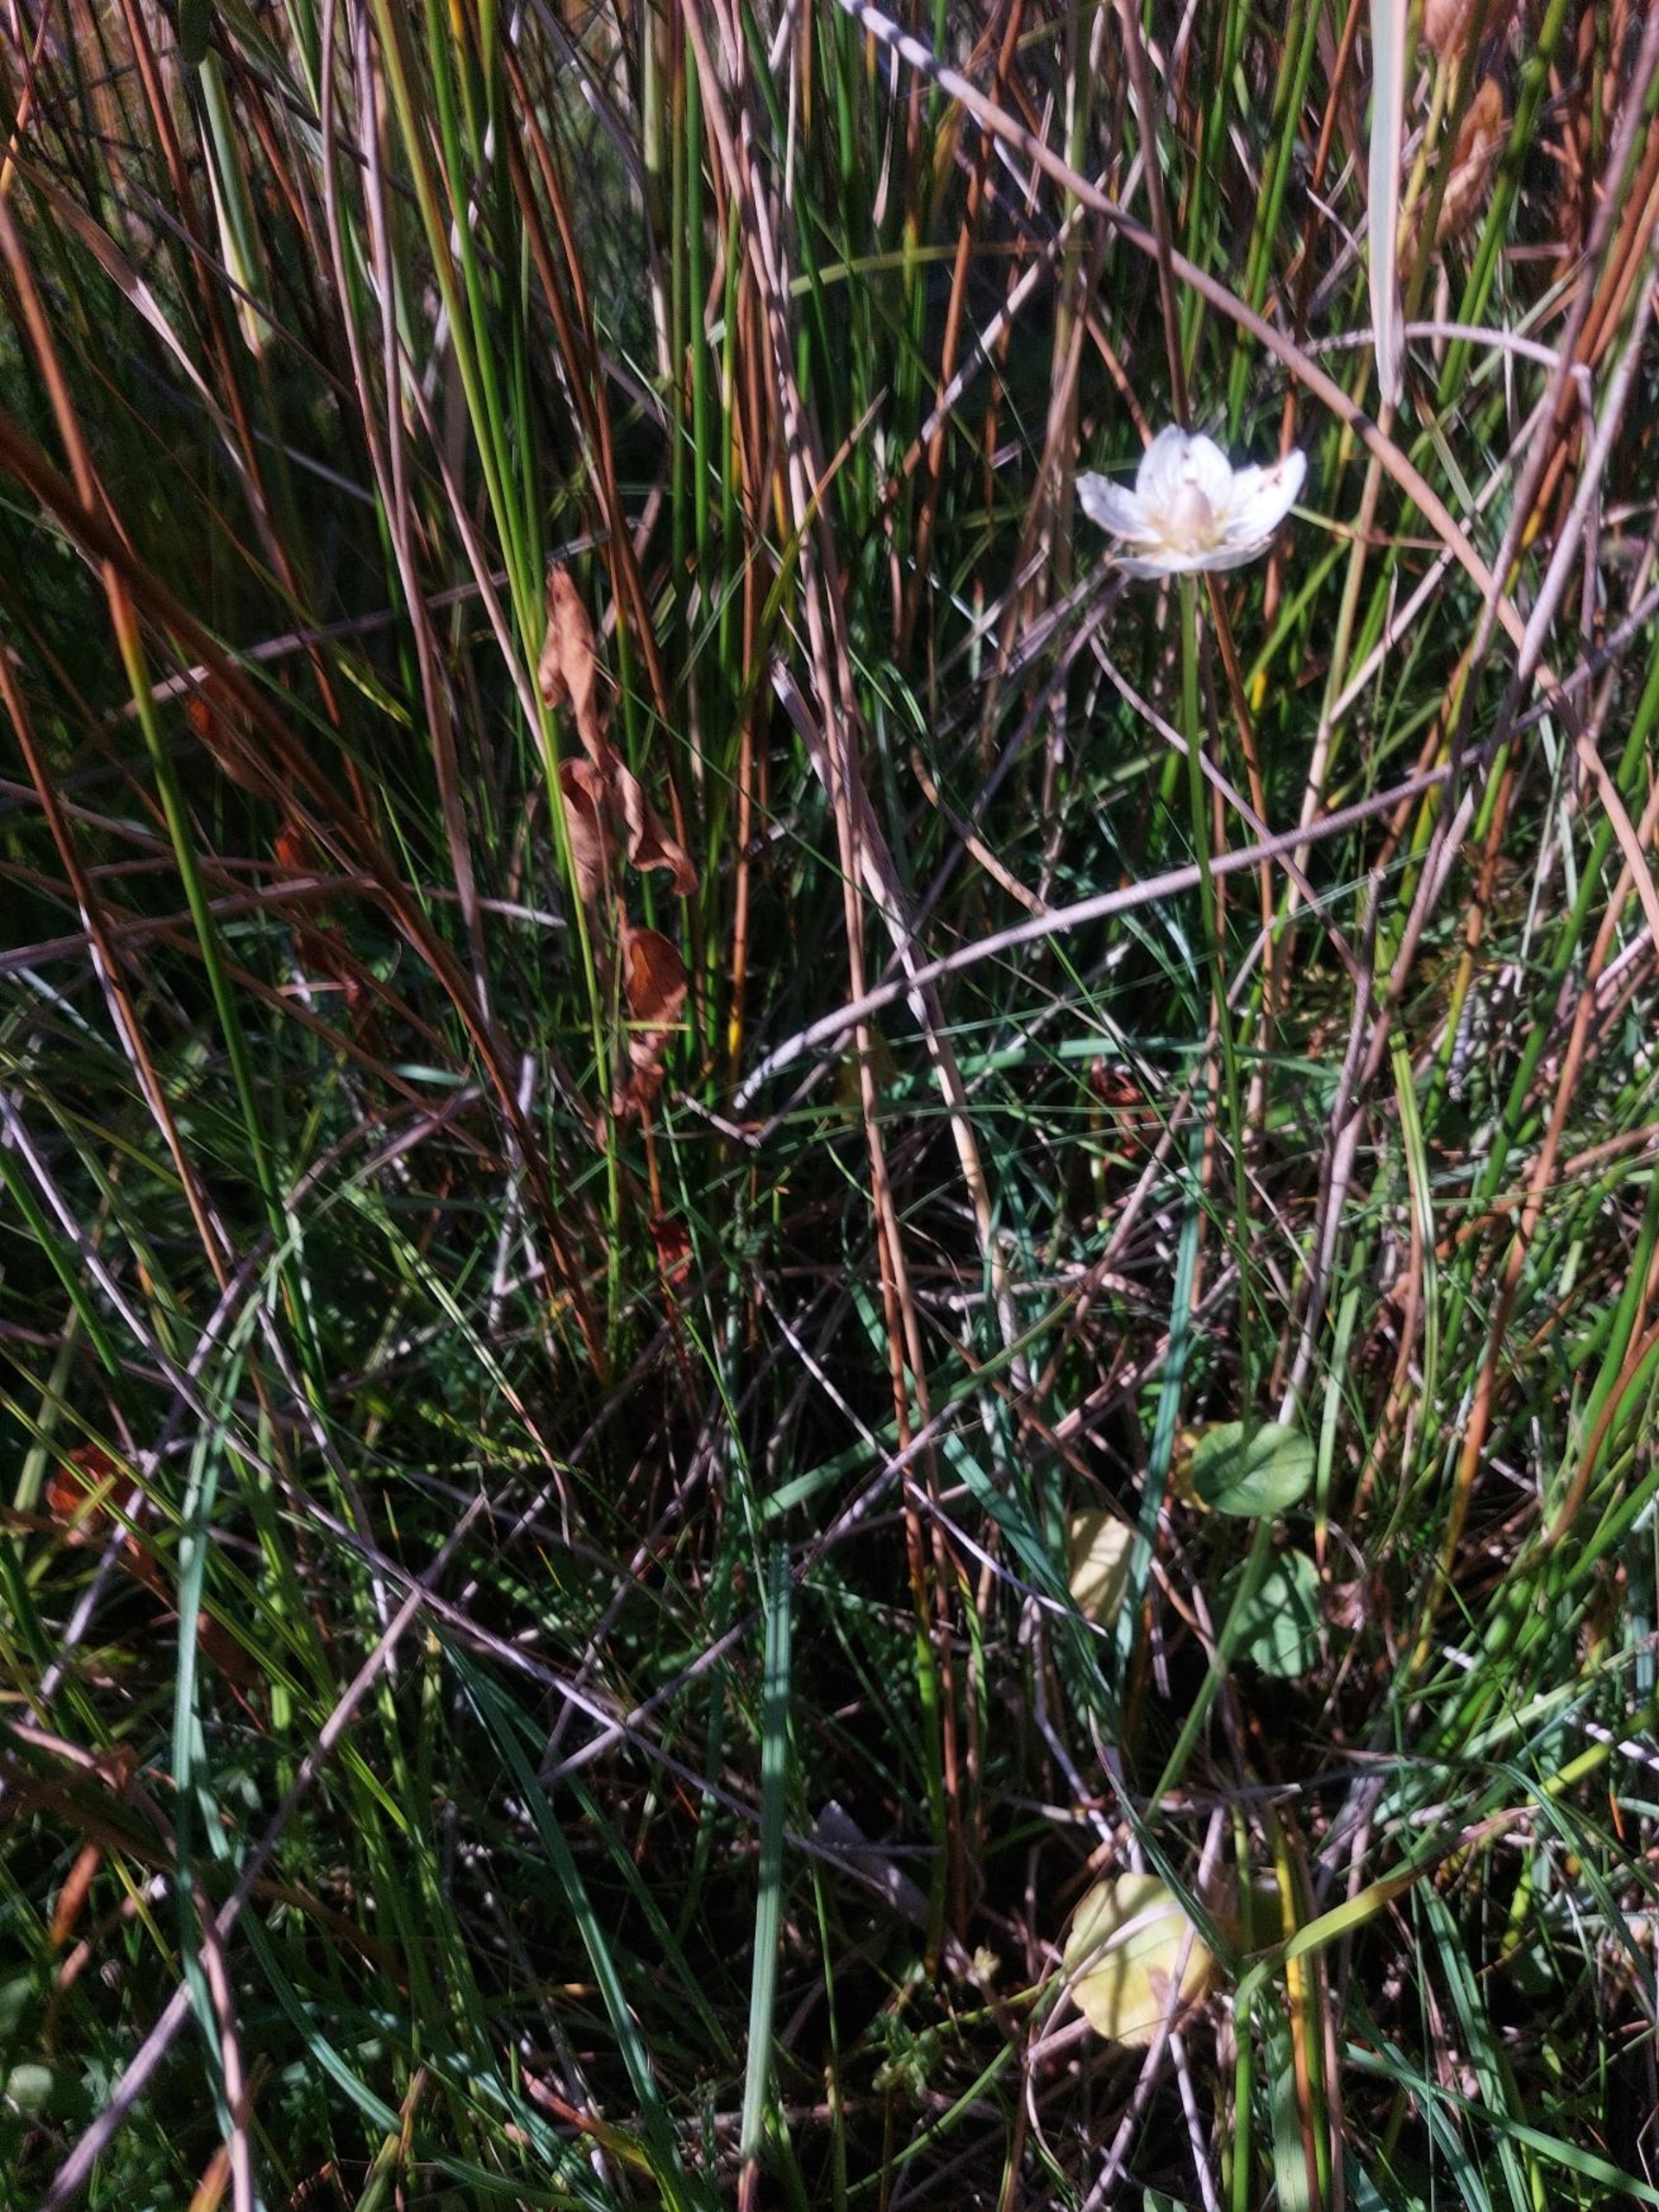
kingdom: Plantae
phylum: Tracheophyta
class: Magnoliopsida
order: Celastrales
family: Parnassiaceae
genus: Parnassia
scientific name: Parnassia palustris
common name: Leverurt
